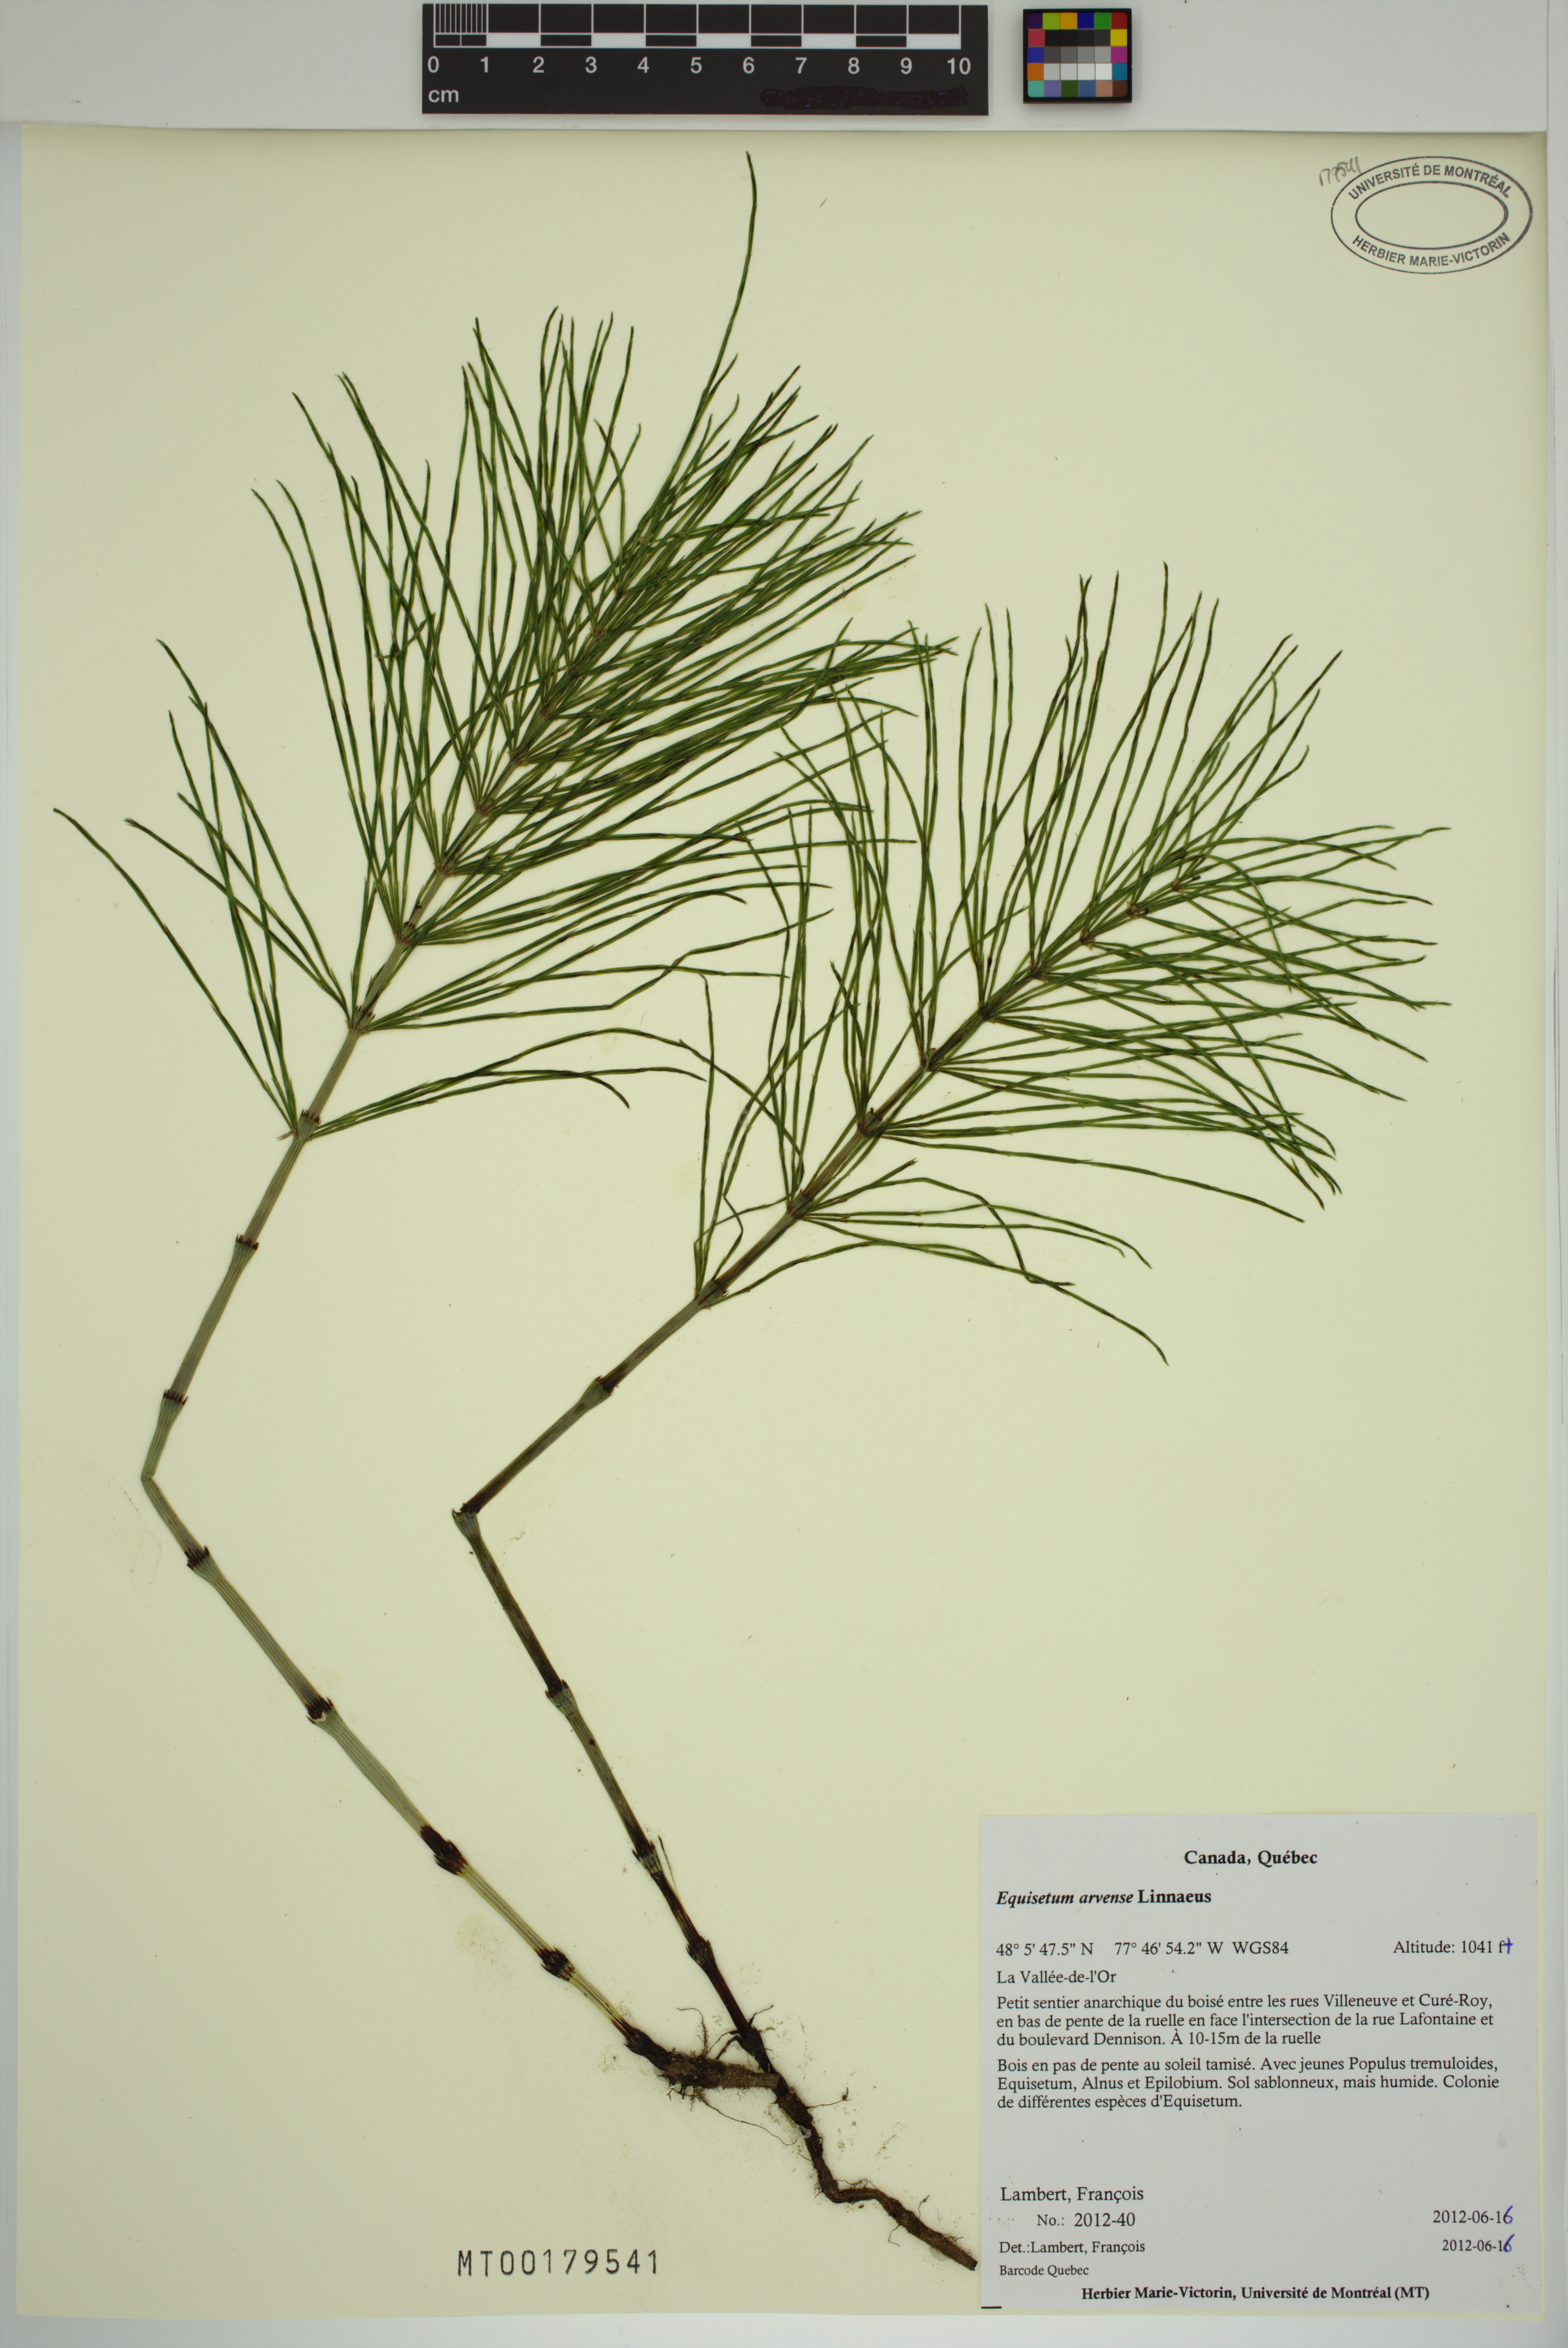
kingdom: Plantae
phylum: Tracheophyta
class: Polypodiopsida
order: Equisetales
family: Equisetaceae
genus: Equisetum
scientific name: Equisetum arvense
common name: Field horsetail
